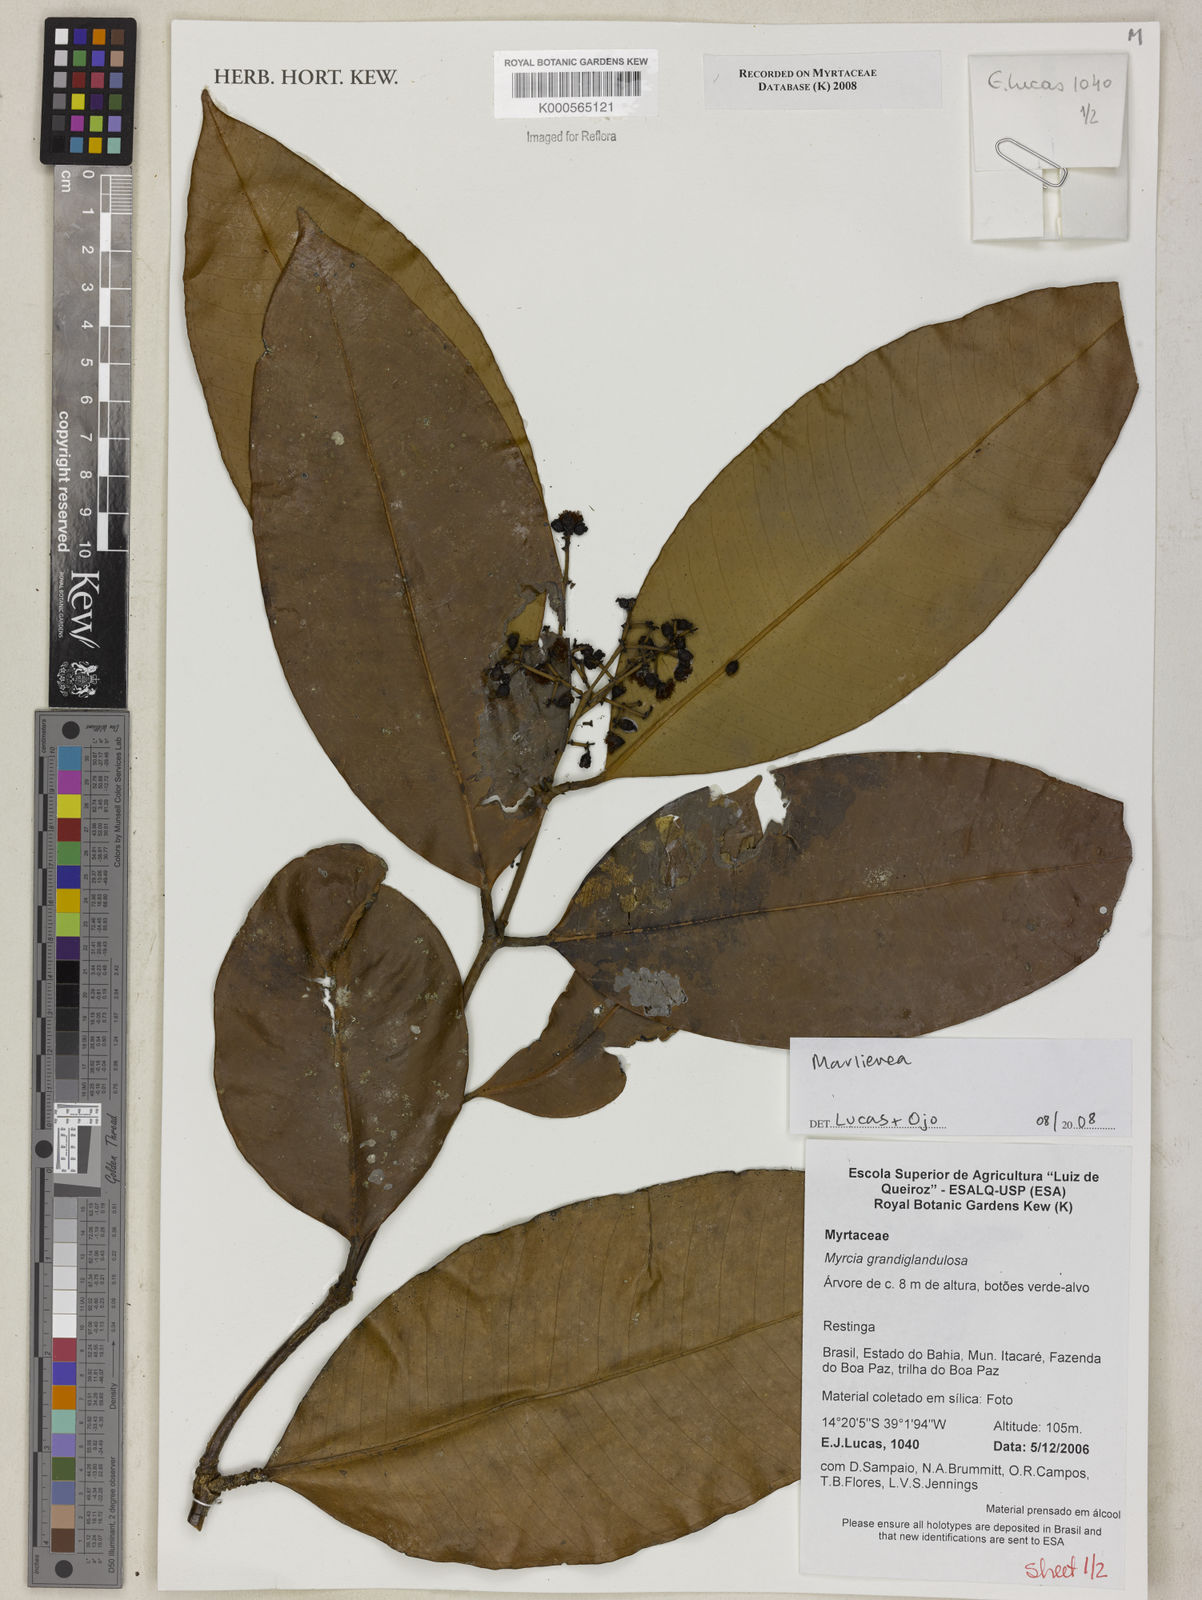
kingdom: Plantae
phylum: Tracheophyta
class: Magnoliopsida
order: Myrtales
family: Myrtaceae
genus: Myrcia
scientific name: Myrcia trimera
